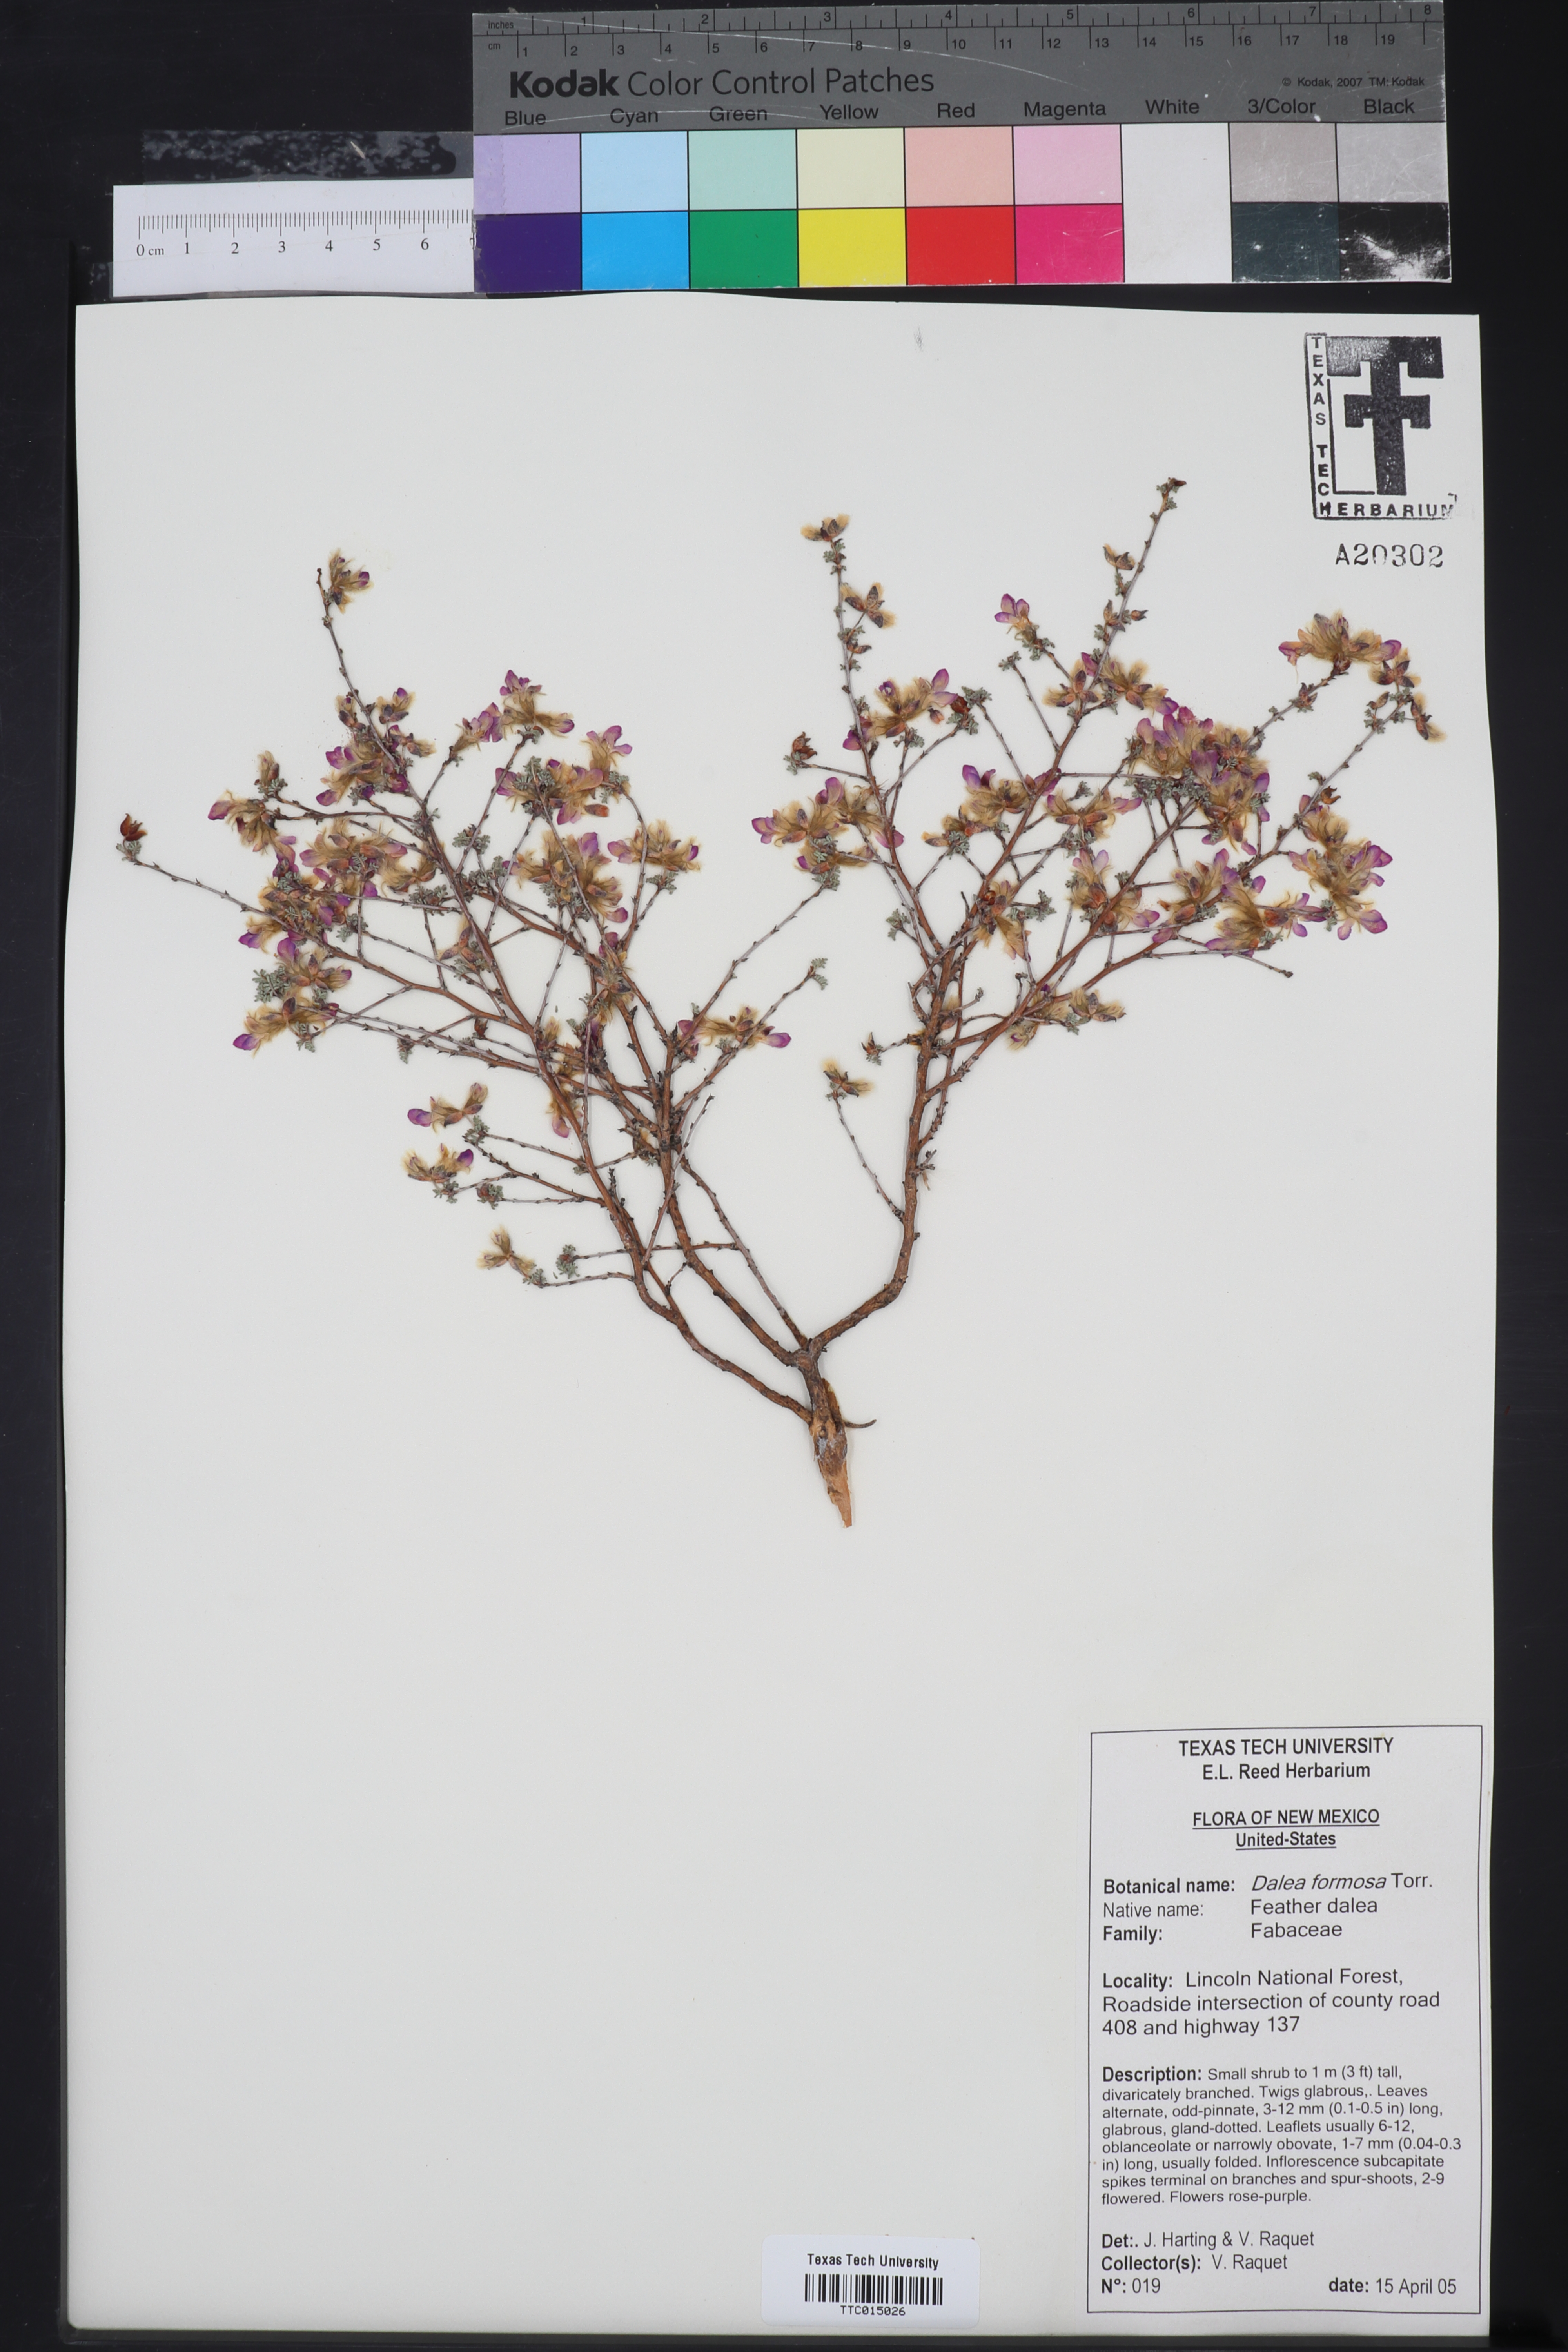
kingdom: Plantae
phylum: Tracheophyta
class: Magnoliopsida
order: Fabales
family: Fabaceae
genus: Dalea
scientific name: Dalea formosa
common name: Feather-plume dalea
